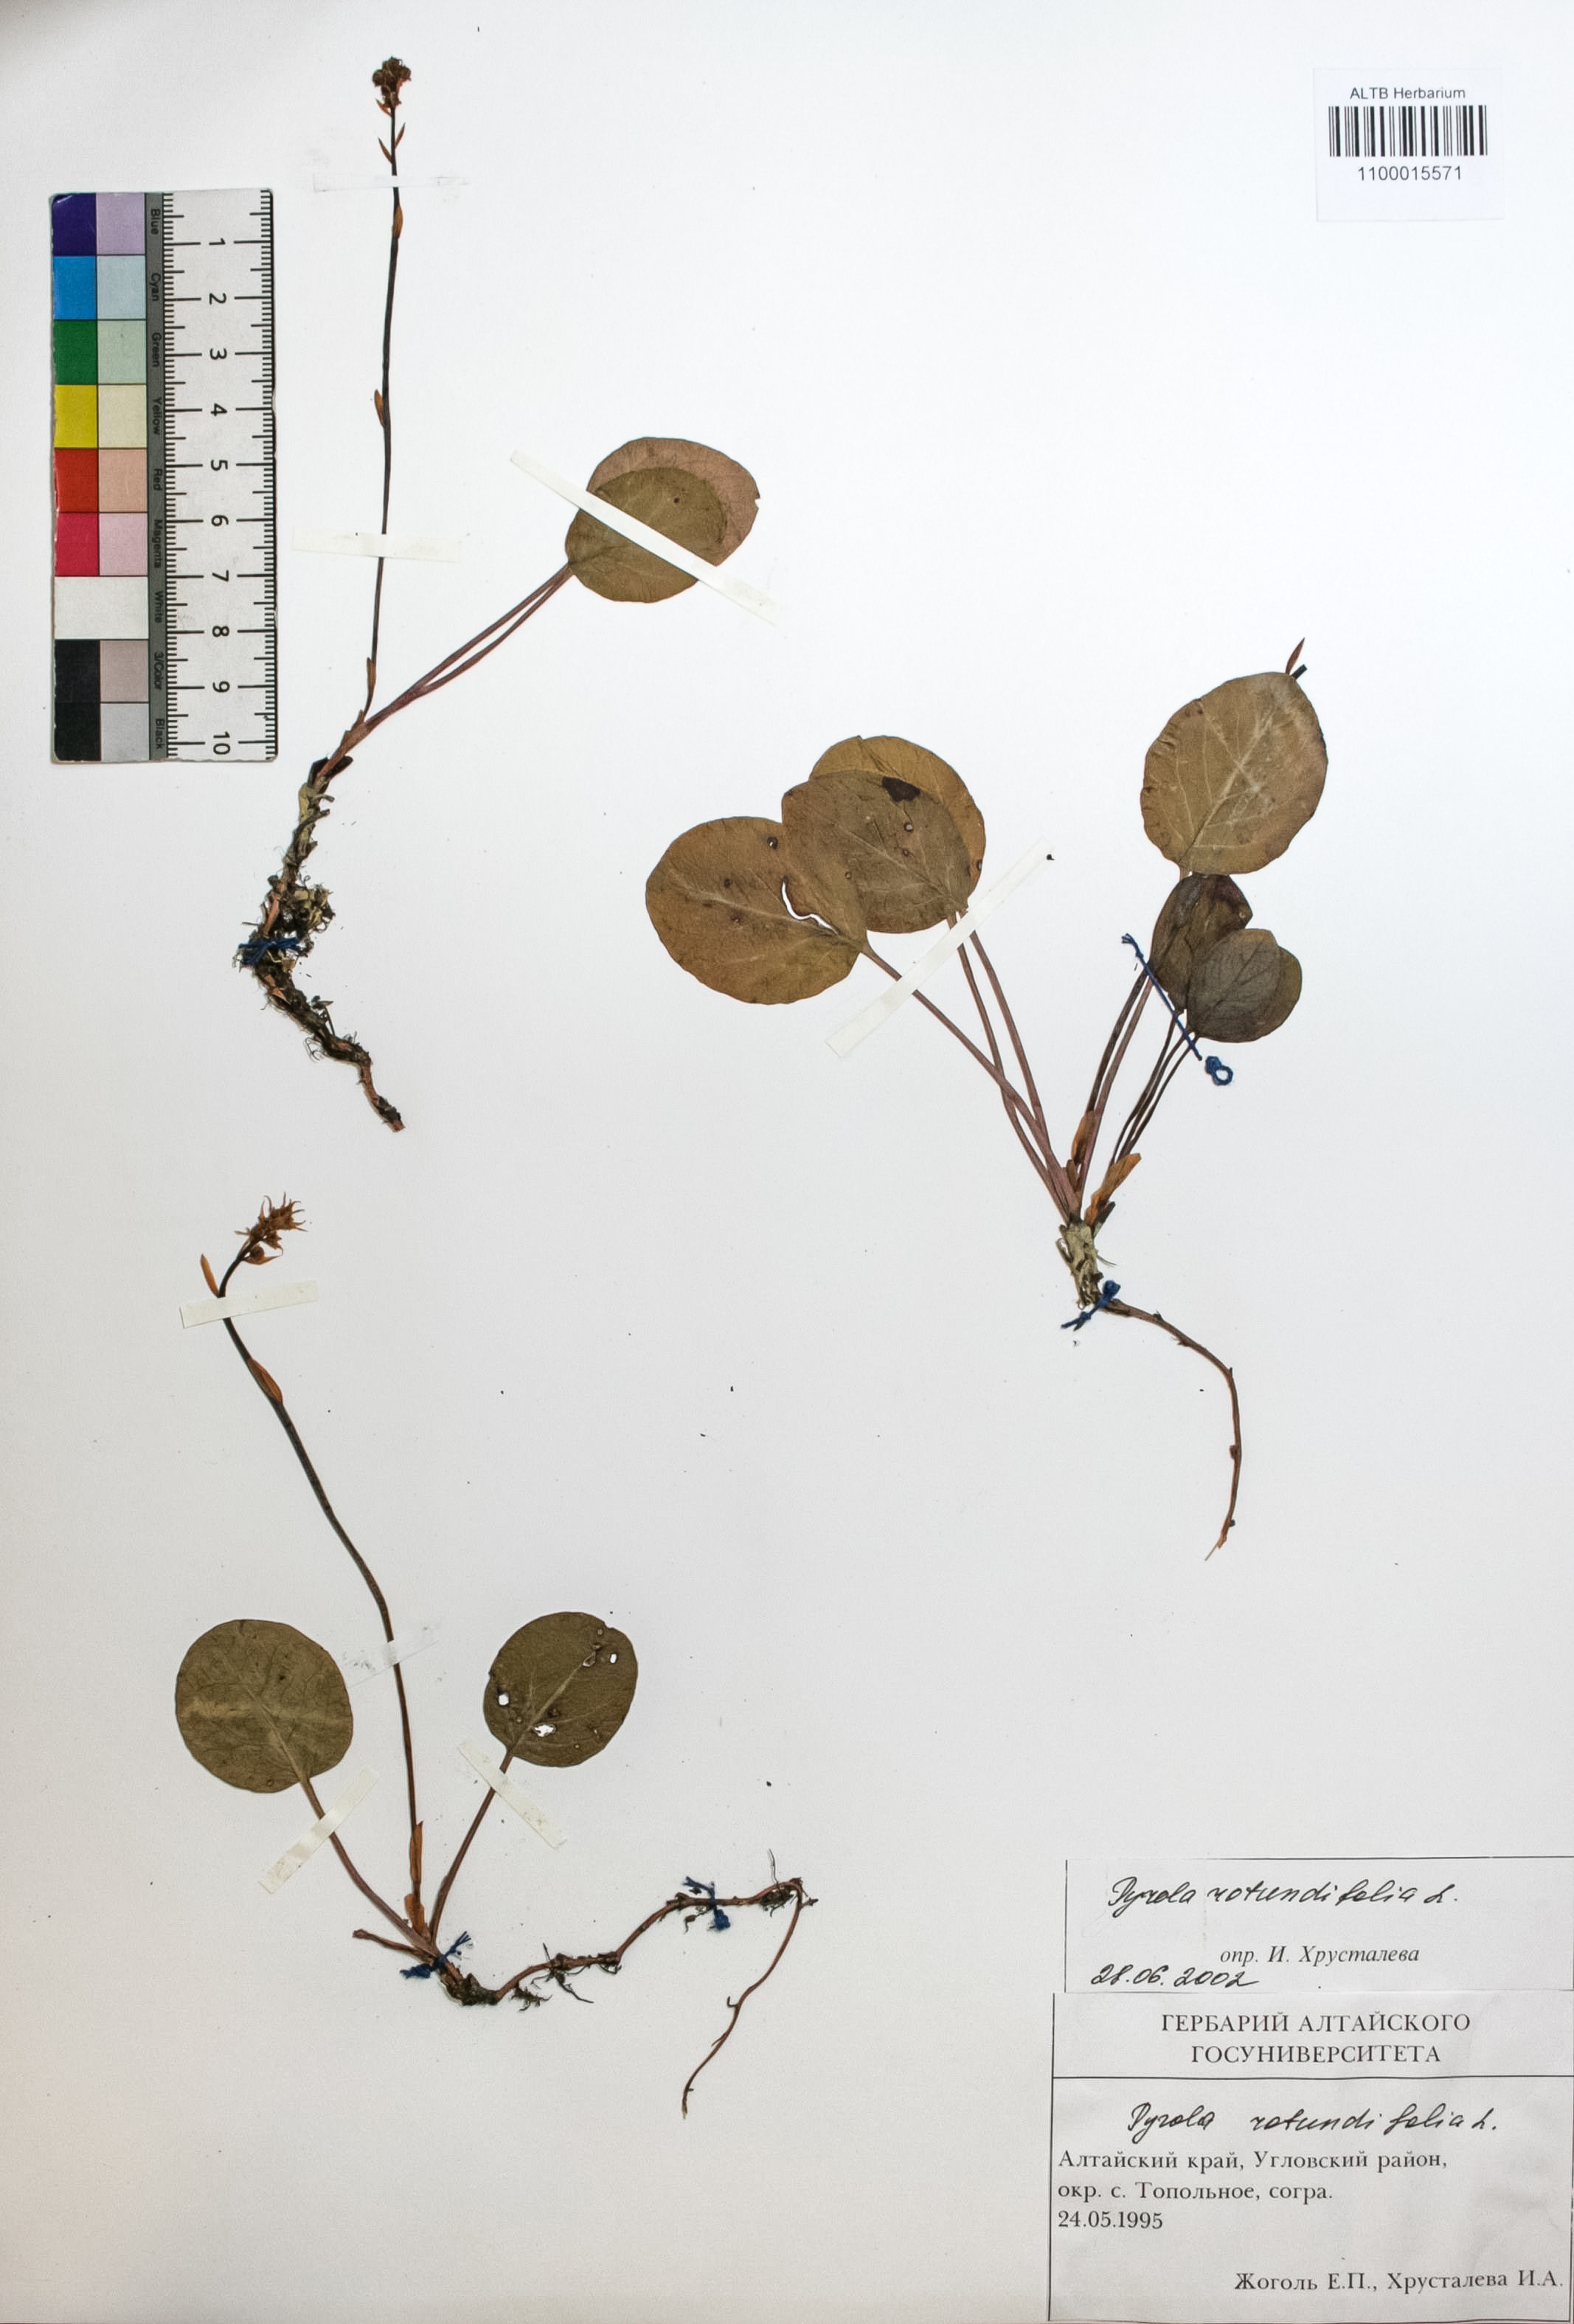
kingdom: Plantae
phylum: Tracheophyta
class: Magnoliopsida
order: Ericales
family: Ericaceae
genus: Pyrola
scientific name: Pyrola rotundifolia
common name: Round-leaved wintergreen
